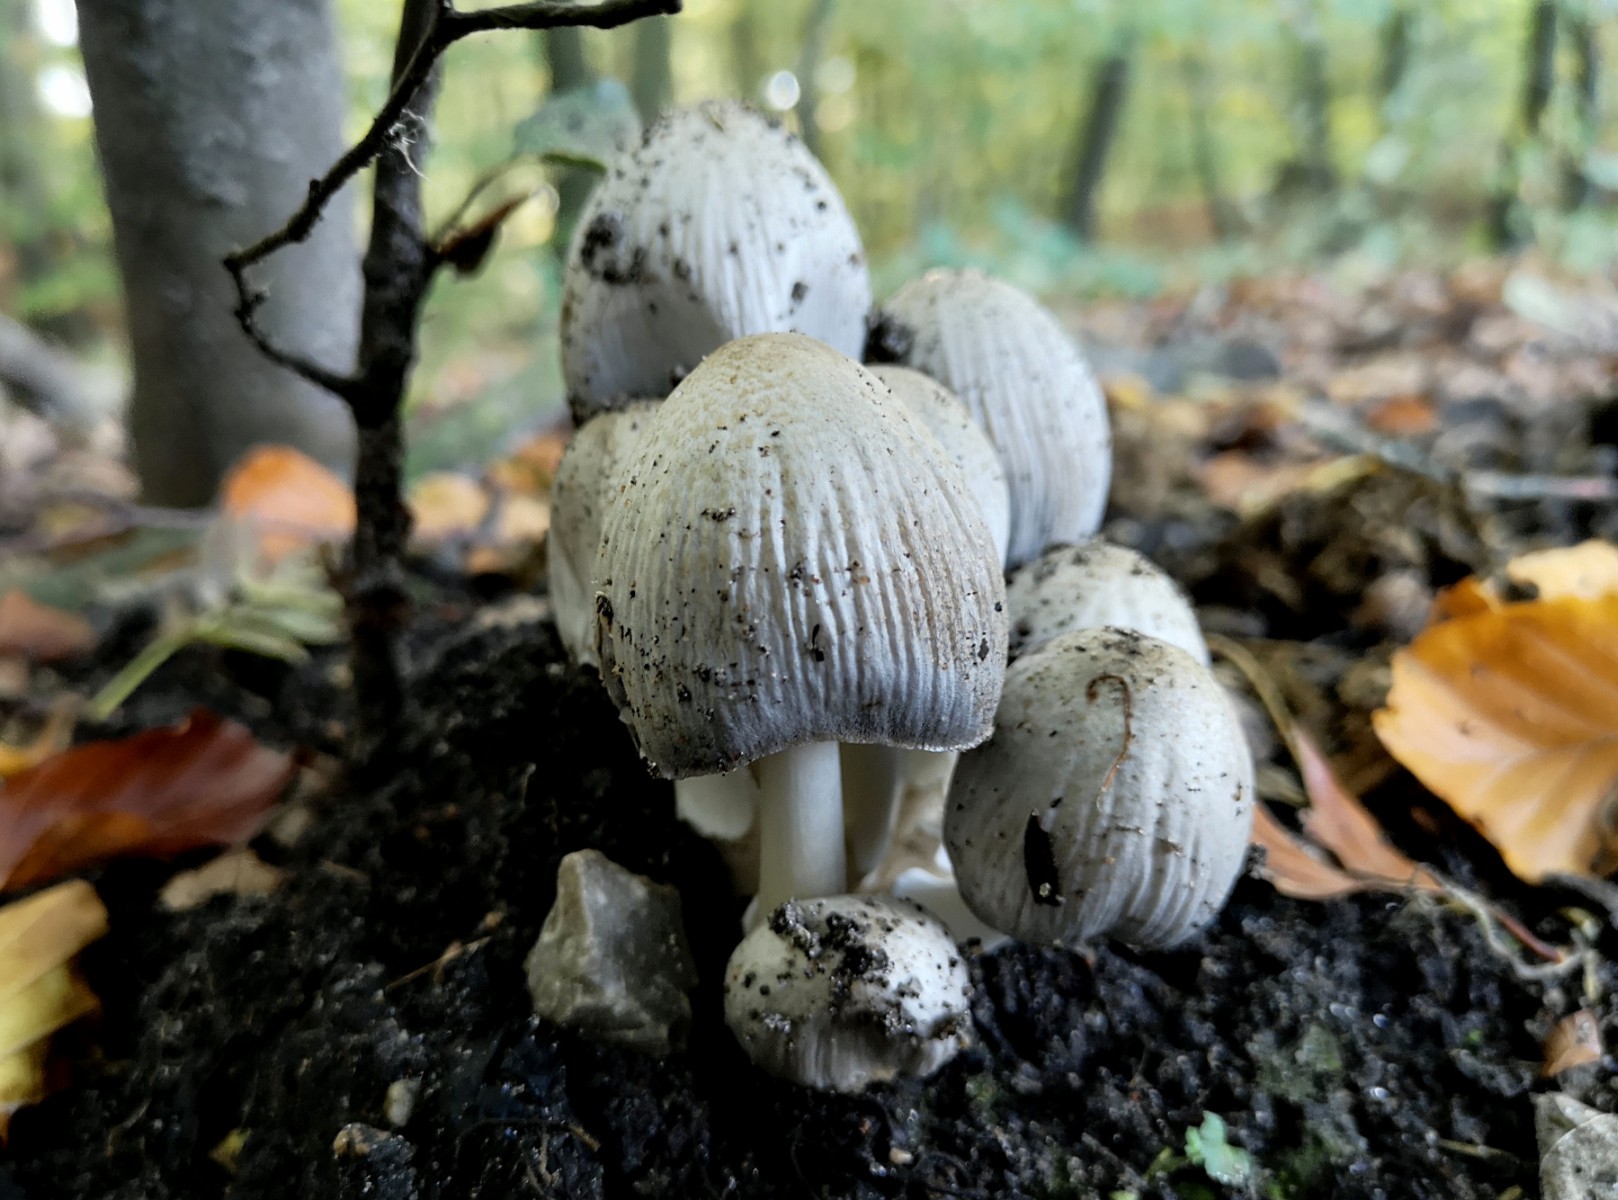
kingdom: Fungi
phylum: Basidiomycota
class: Agaricomycetes
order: Agaricales
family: Psathyrellaceae
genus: Coprinopsis
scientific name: Coprinopsis
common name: blækhat
